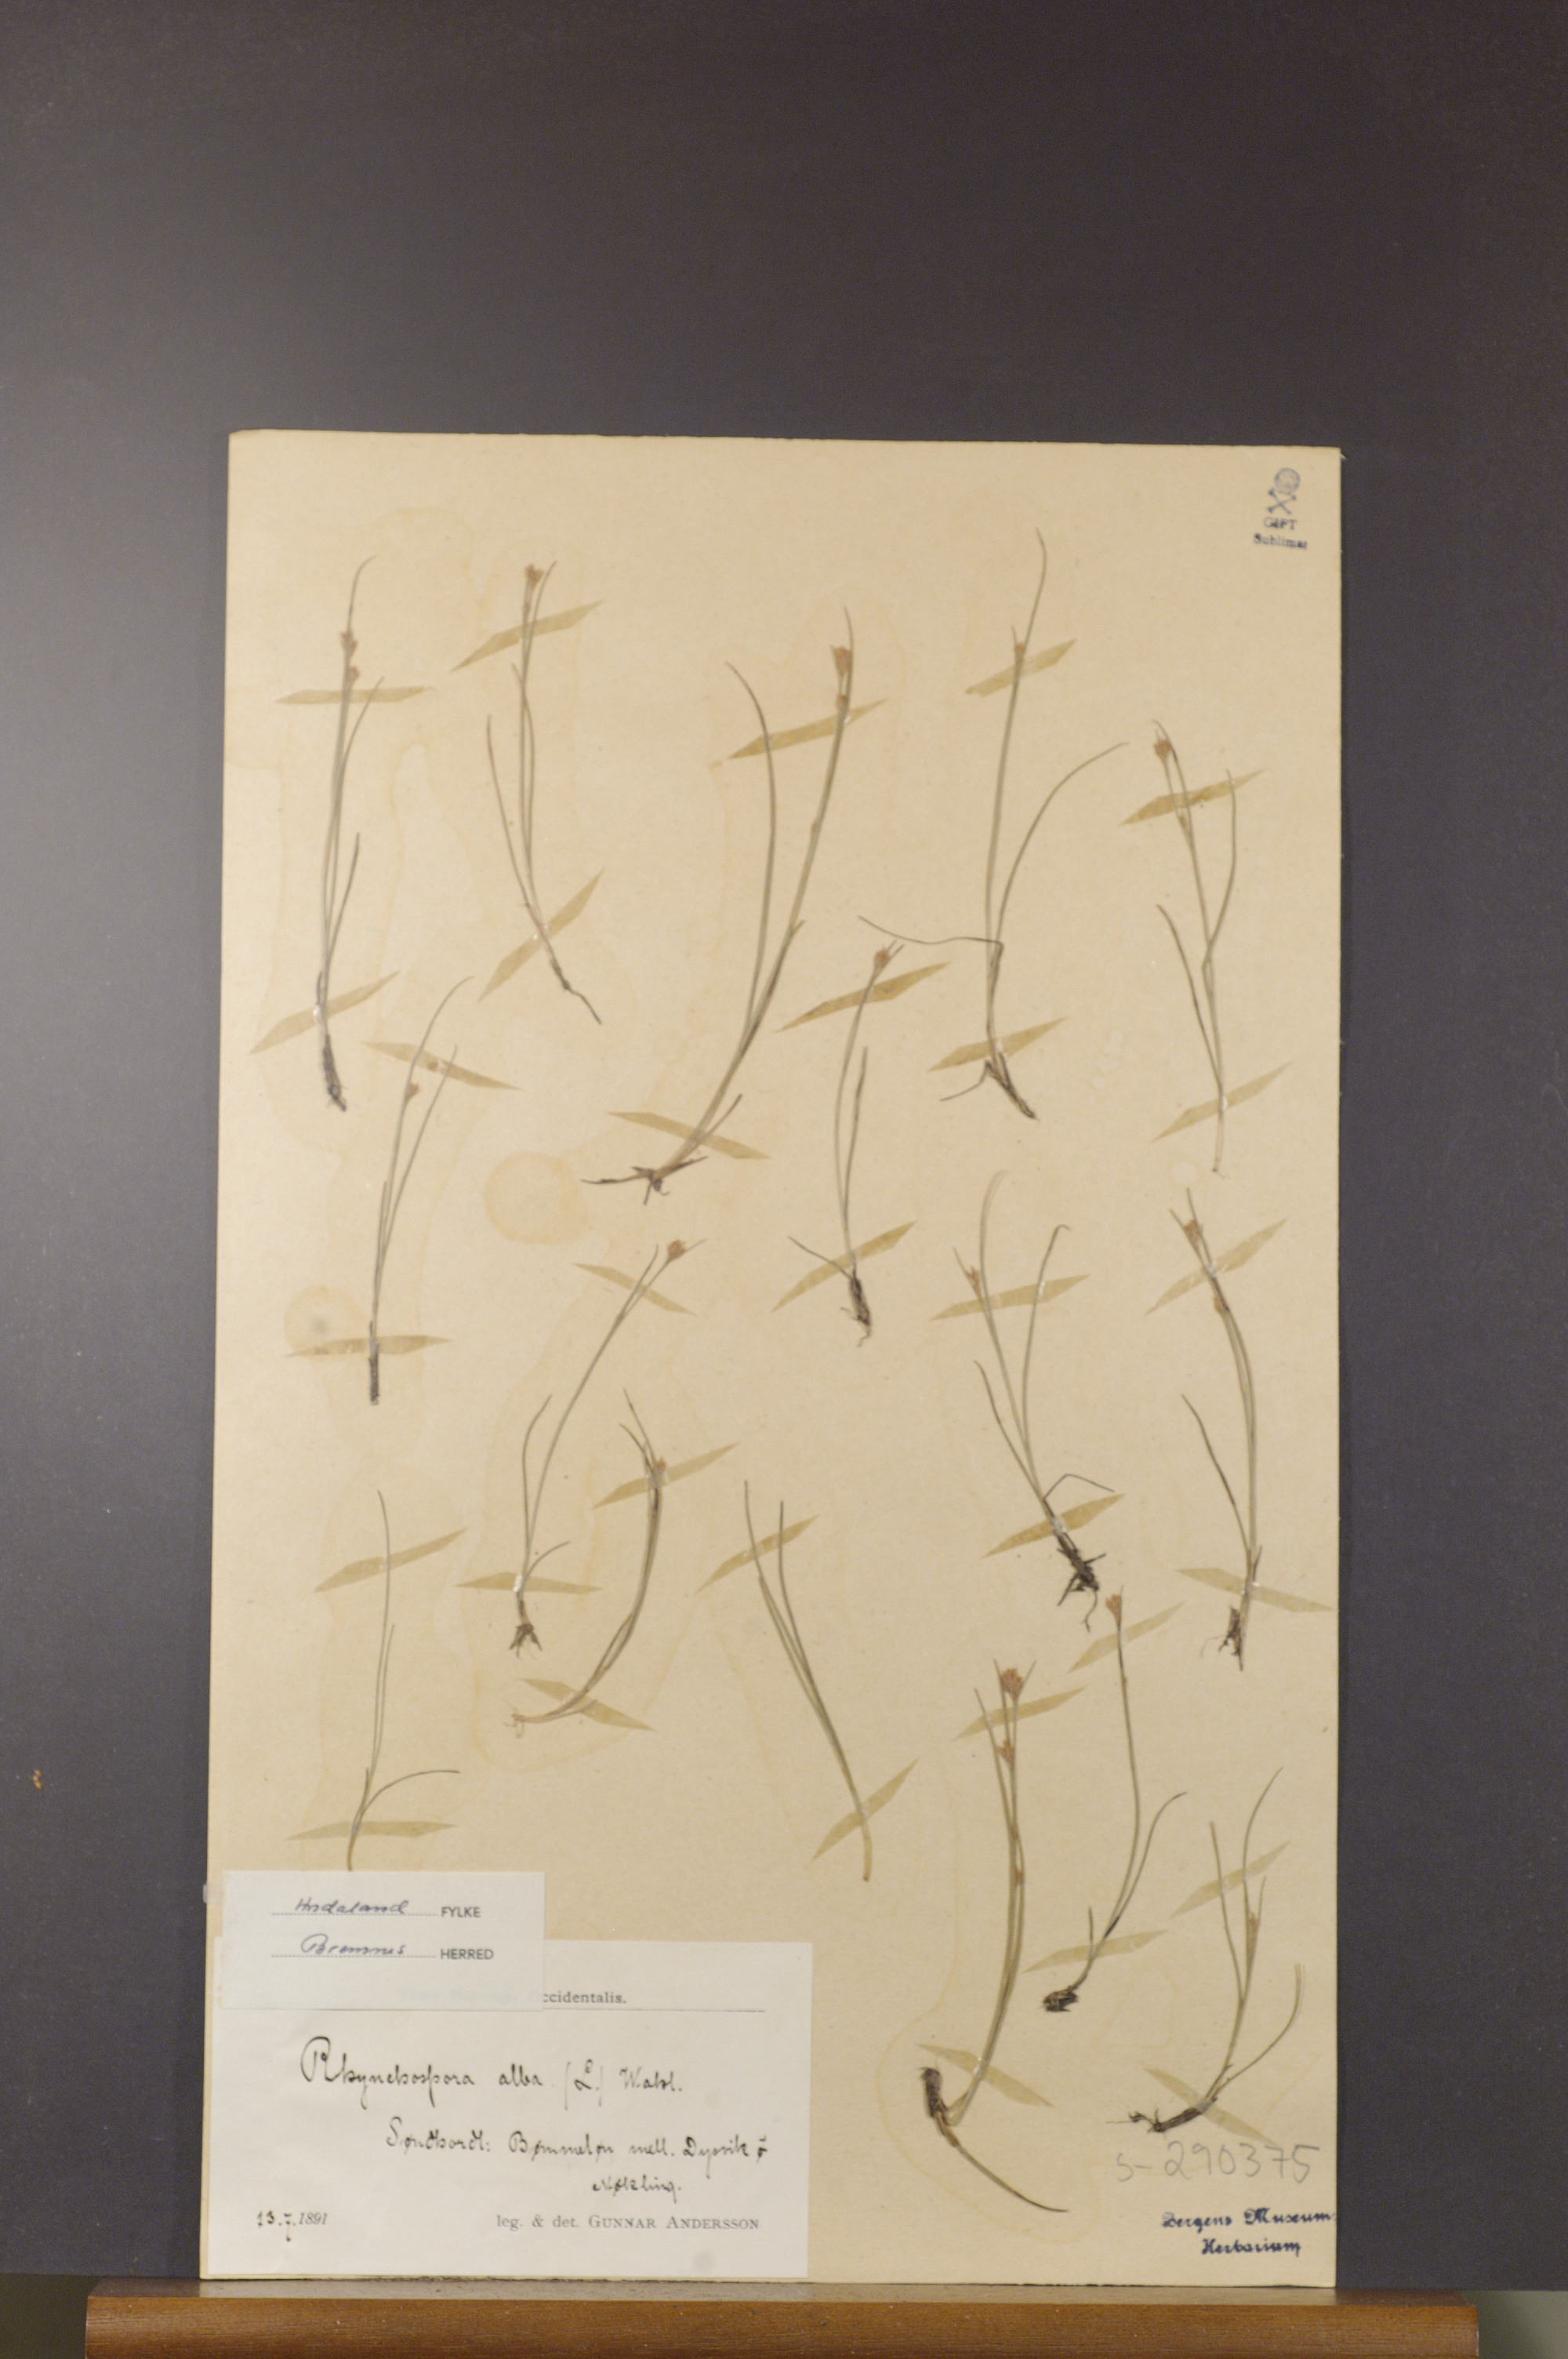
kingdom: Plantae
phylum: Tracheophyta
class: Liliopsida
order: Poales
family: Cyperaceae
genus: Rhynchospora
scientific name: Rhynchospora alba
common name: White beak-sedge
